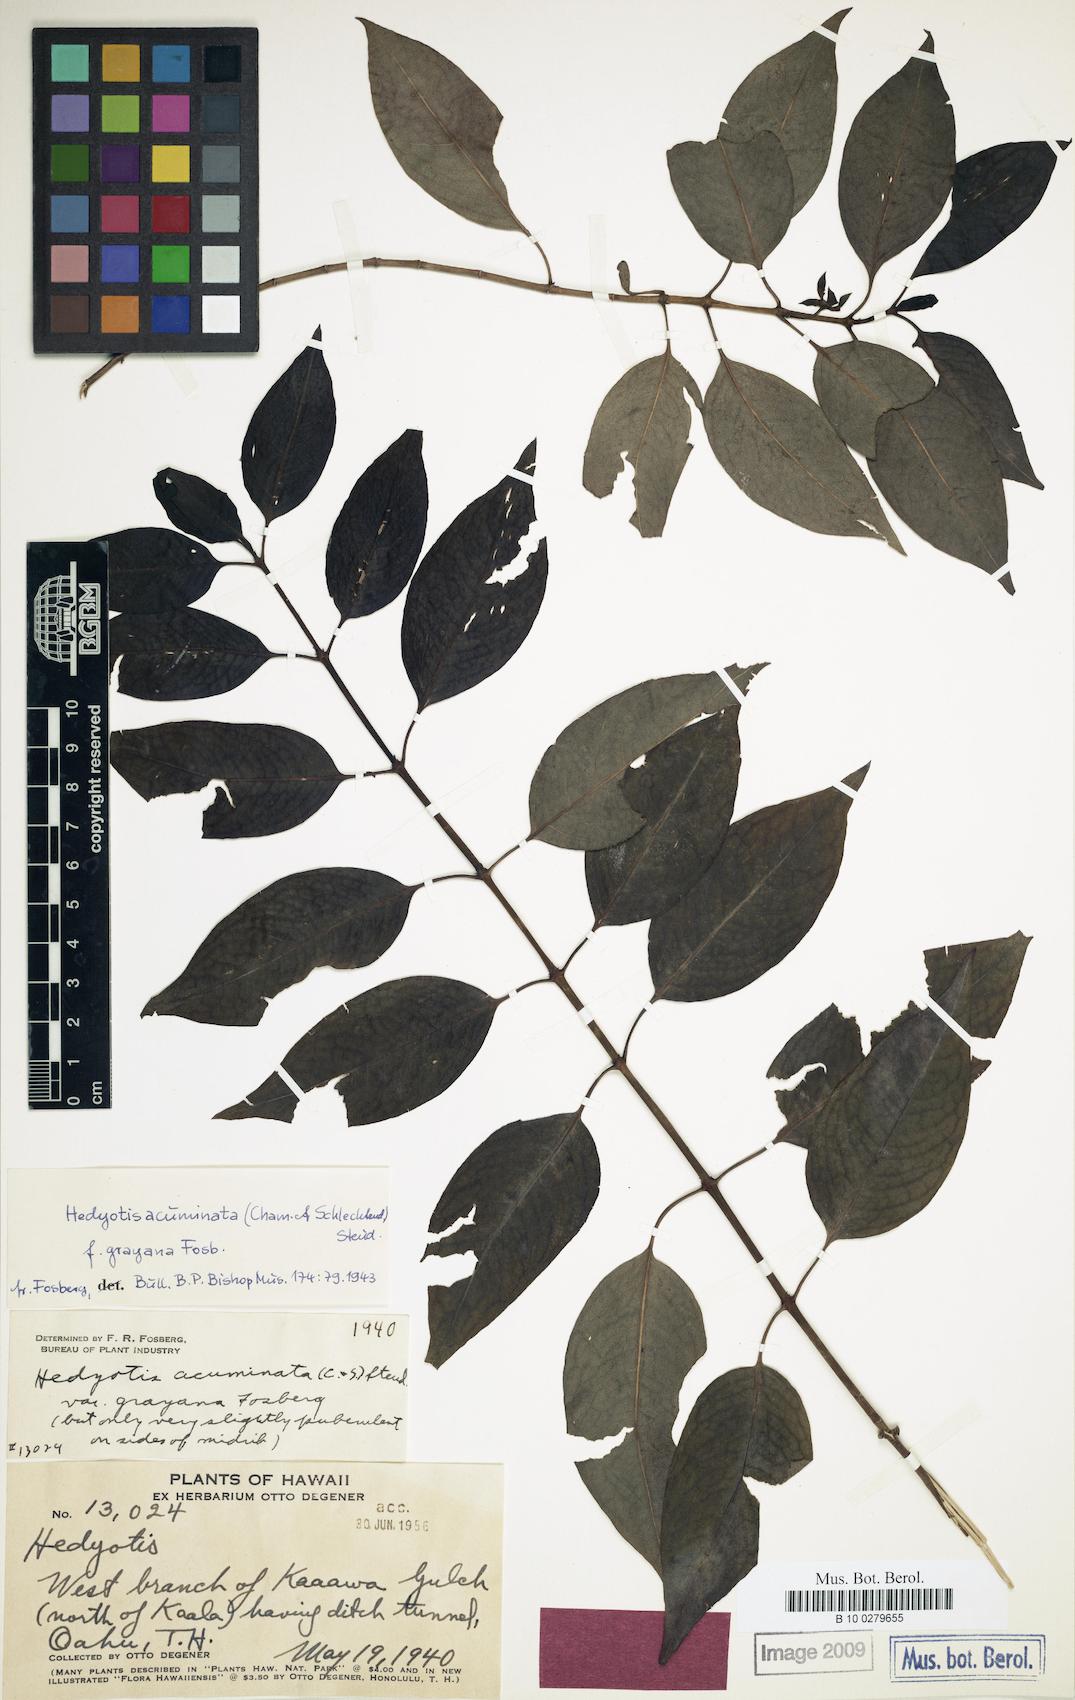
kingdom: Plantae
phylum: Tracheophyta
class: Magnoliopsida
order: Gentianales
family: Rubiaceae
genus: Kadua
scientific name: Kadua acuminata
